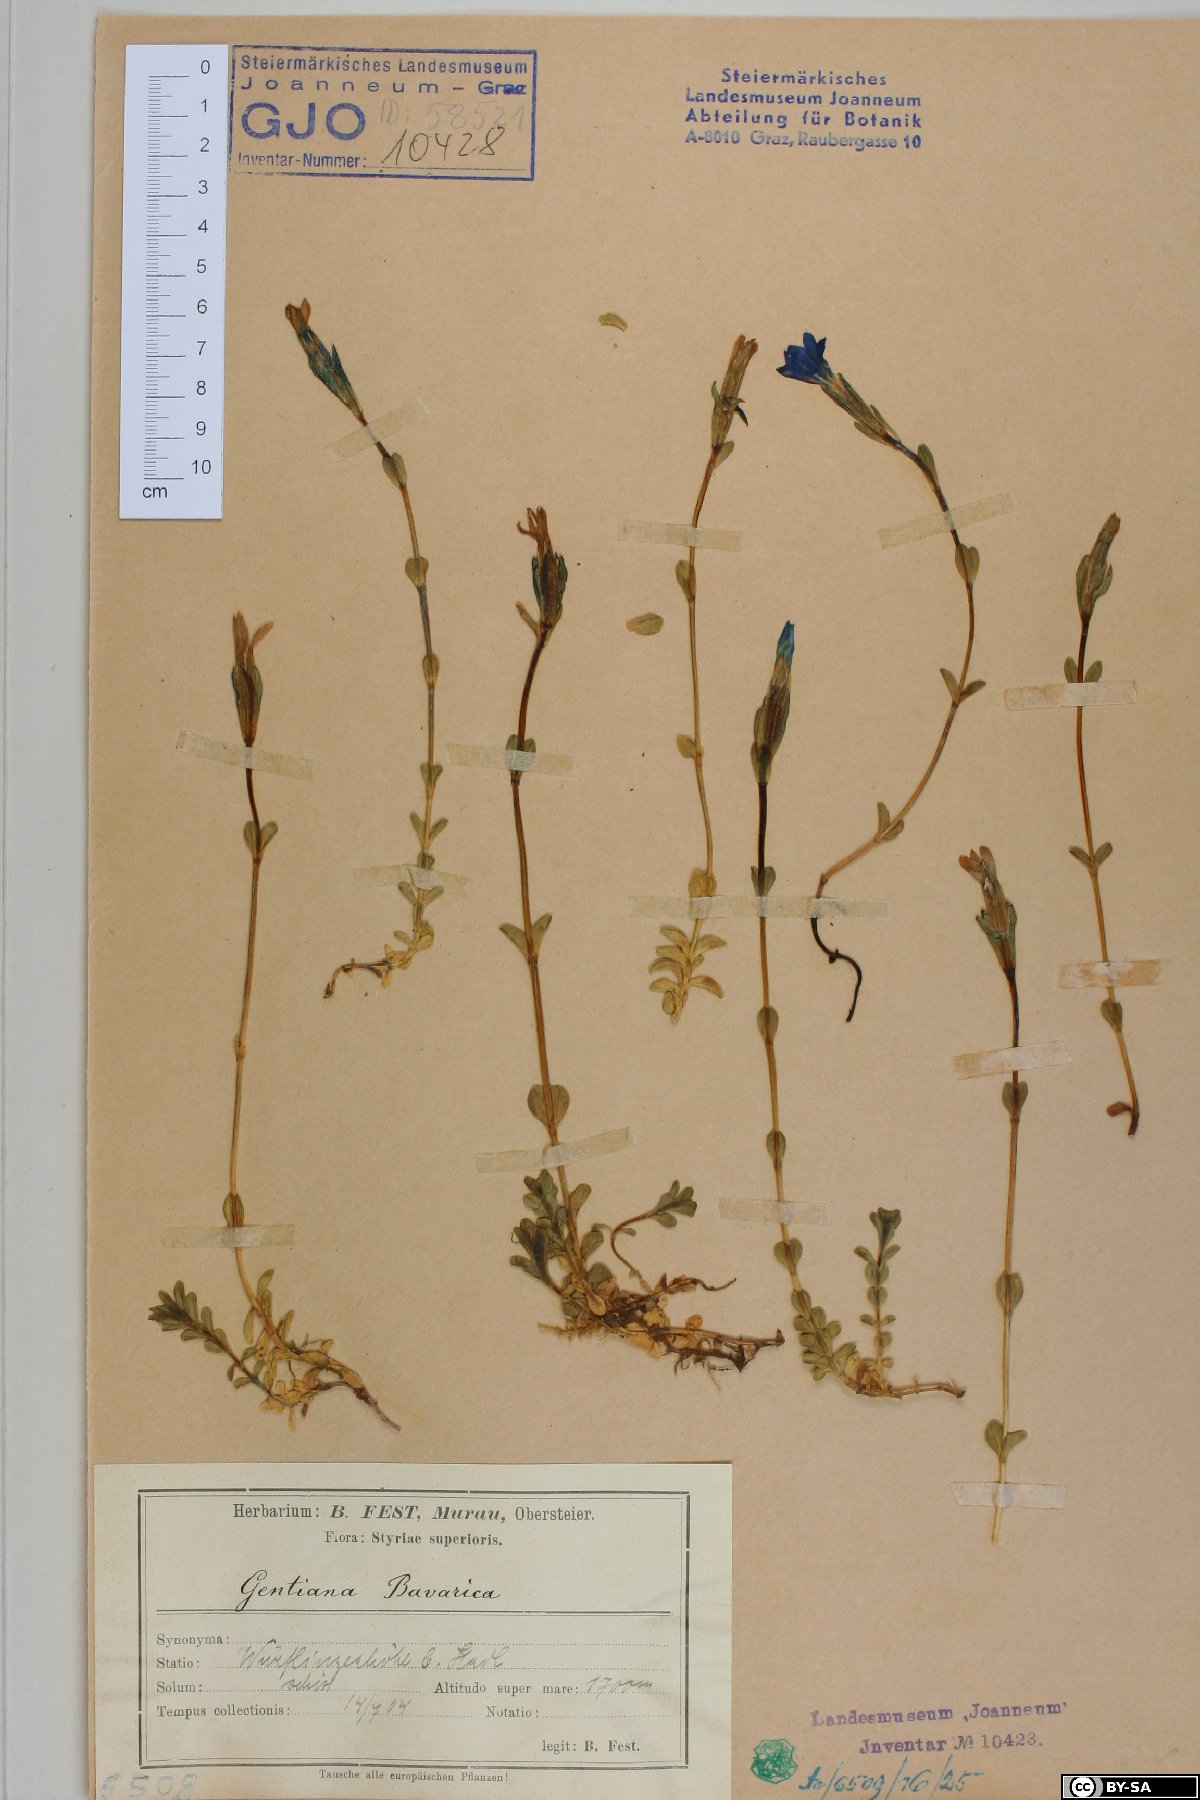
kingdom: Plantae
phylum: Tracheophyta
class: Magnoliopsida
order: Gentianales
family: Gentianaceae
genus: Gentiana
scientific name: Gentiana bavarica
